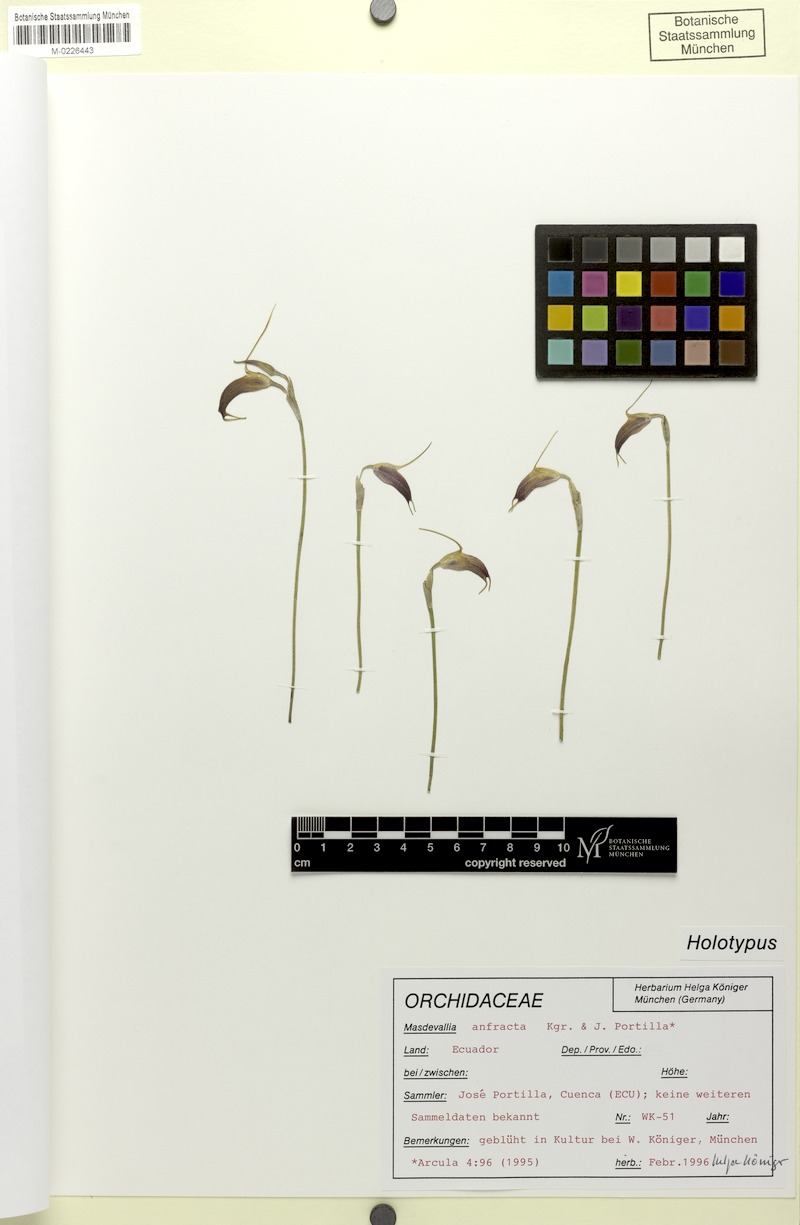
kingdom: Plantae
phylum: Tracheophyta
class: Liliopsida
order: Asparagales
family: Orchidaceae
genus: Masdevallia
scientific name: Masdevallia anfracta
